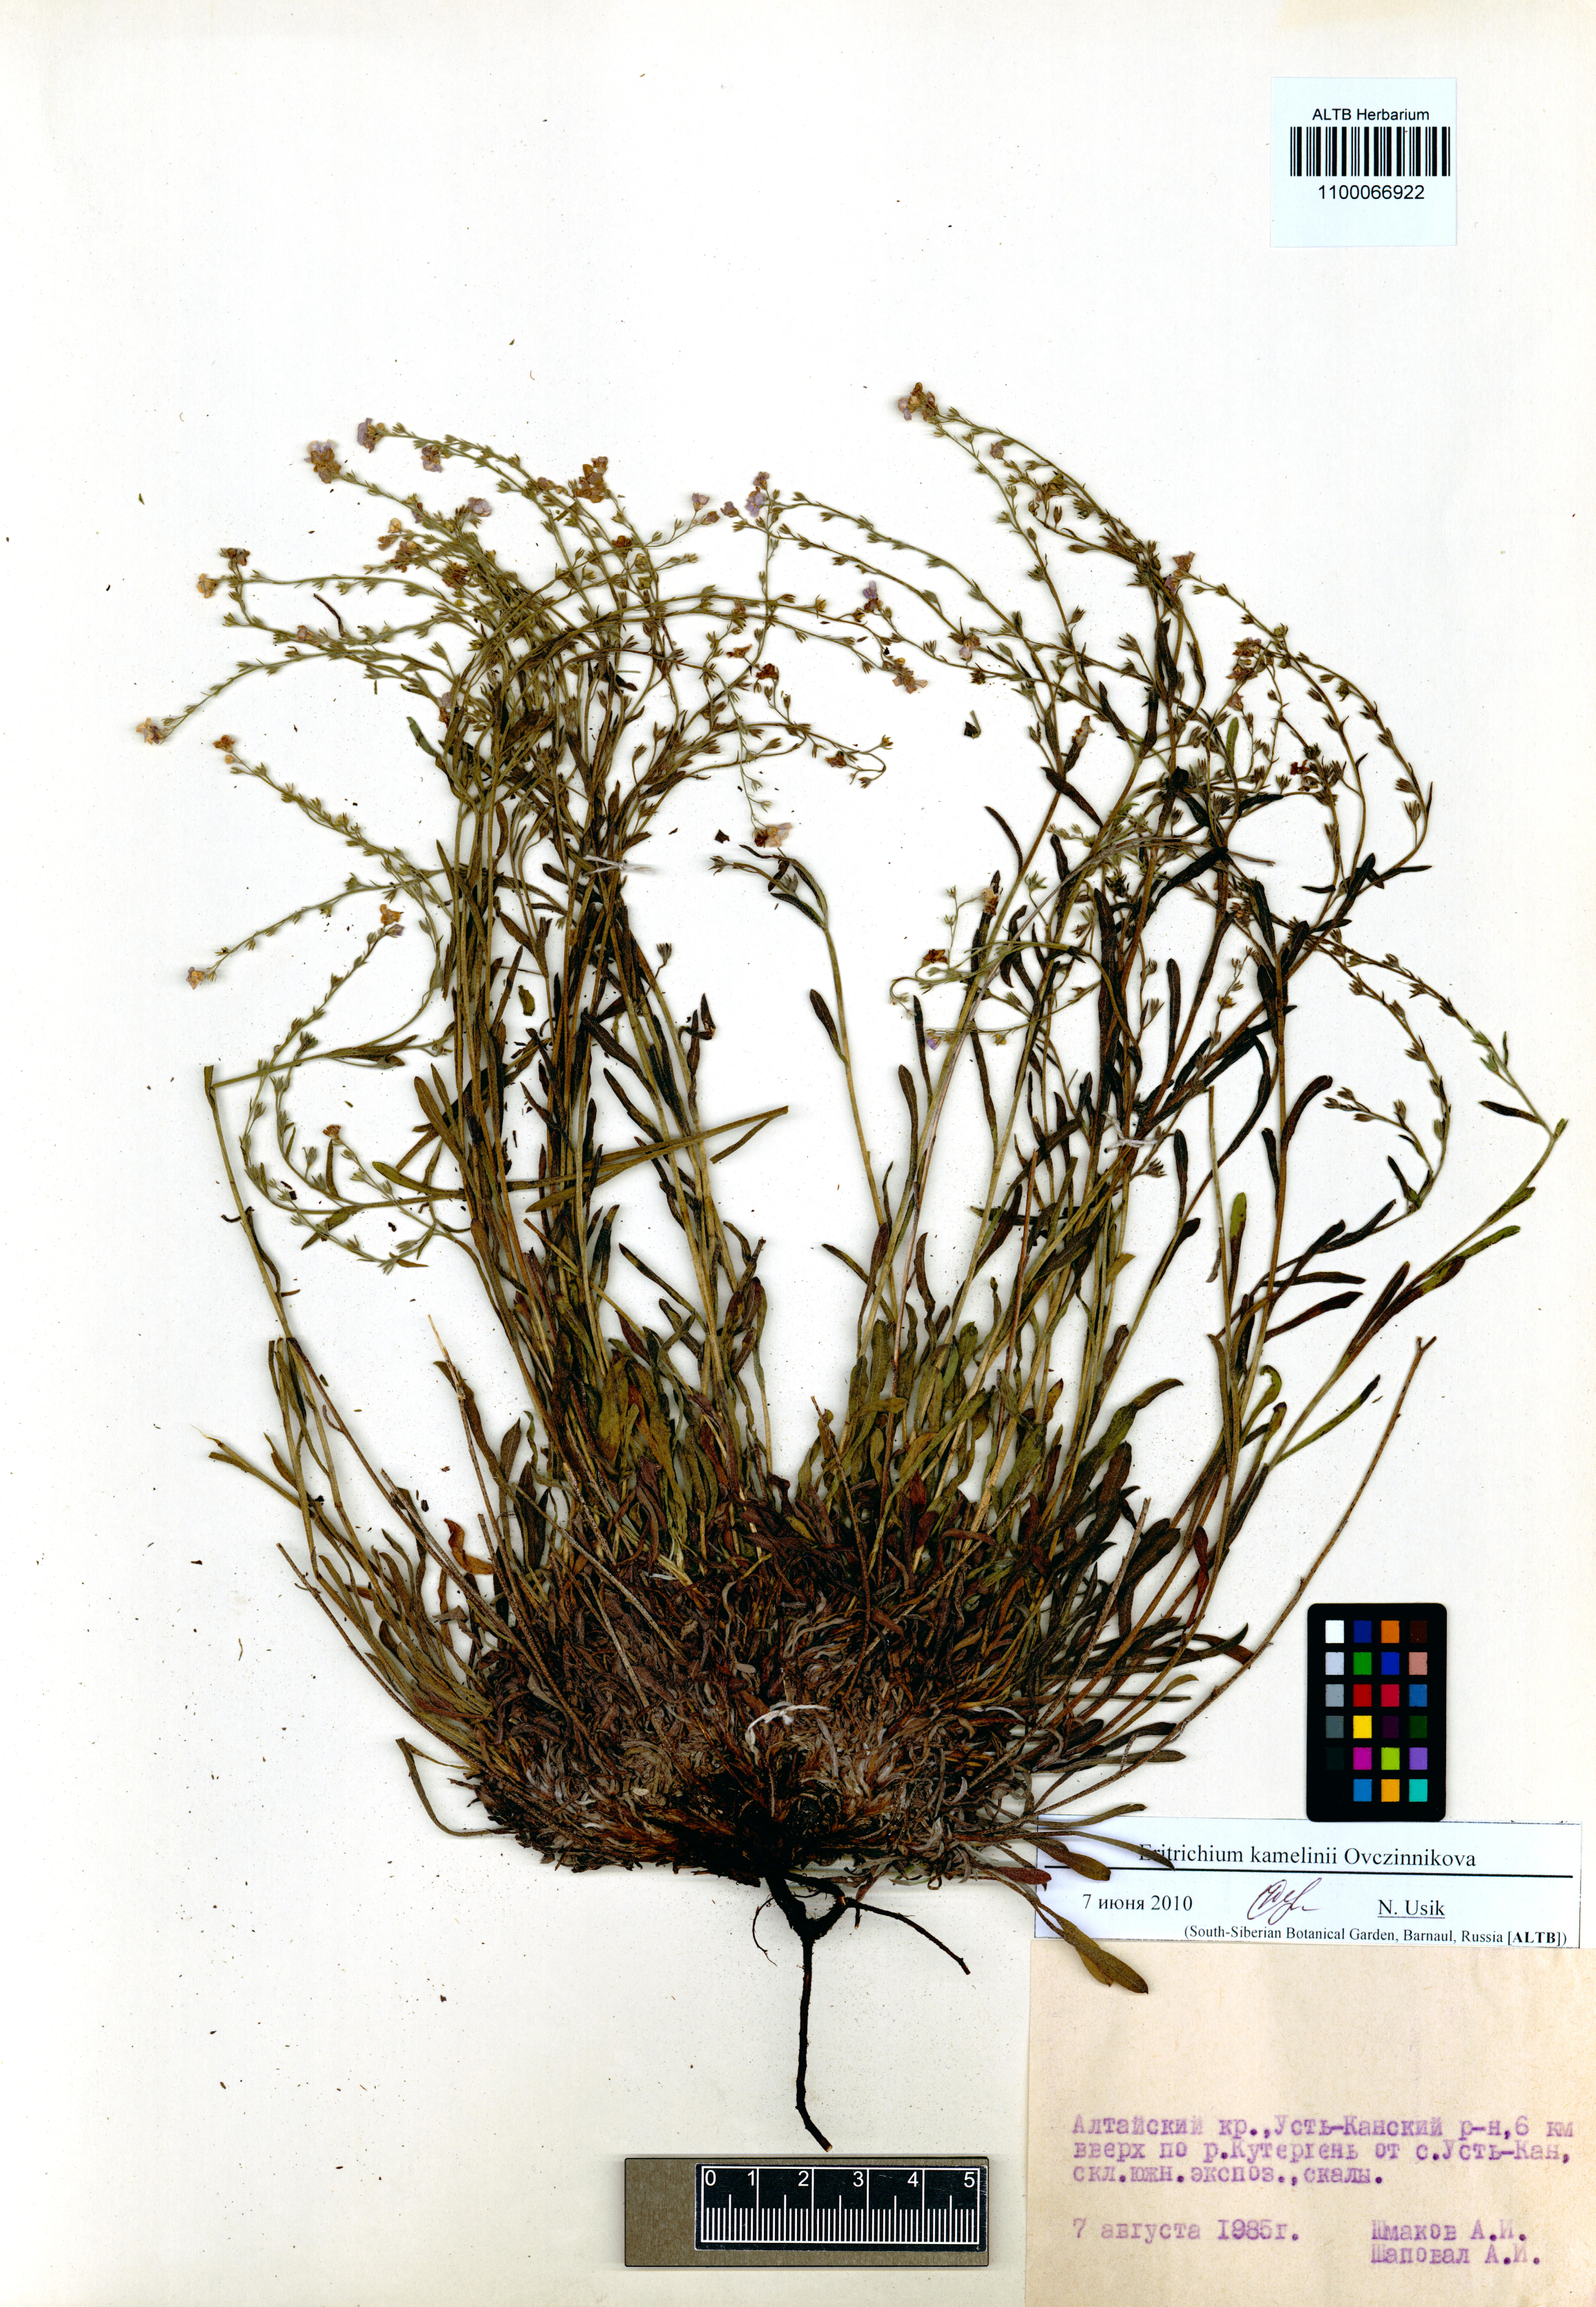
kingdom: Plantae
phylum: Tracheophyta
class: Magnoliopsida
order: Boraginales
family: Boraginaceae
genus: Eritrichium
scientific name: Eritrichium kamelinii
